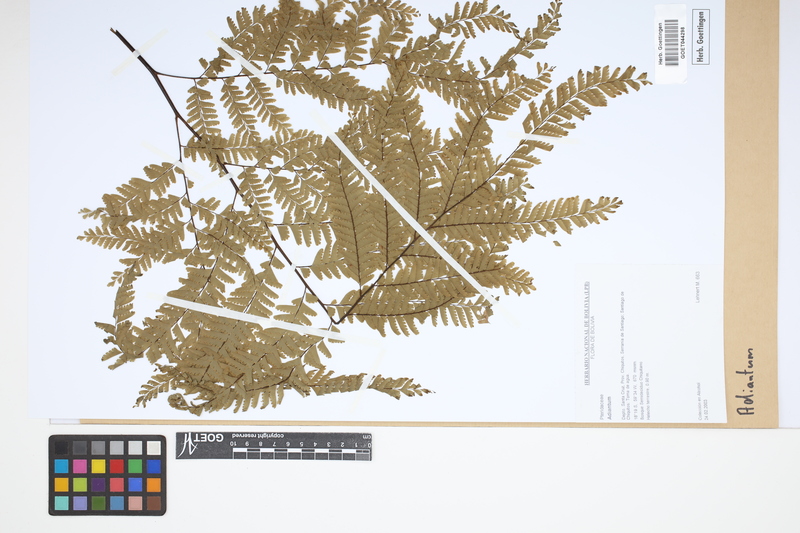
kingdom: Plantae
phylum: Tracheophyta
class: Polypodiopsida
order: Polypodiales
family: Pteridaceae
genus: Adiantum
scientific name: Adiantum
